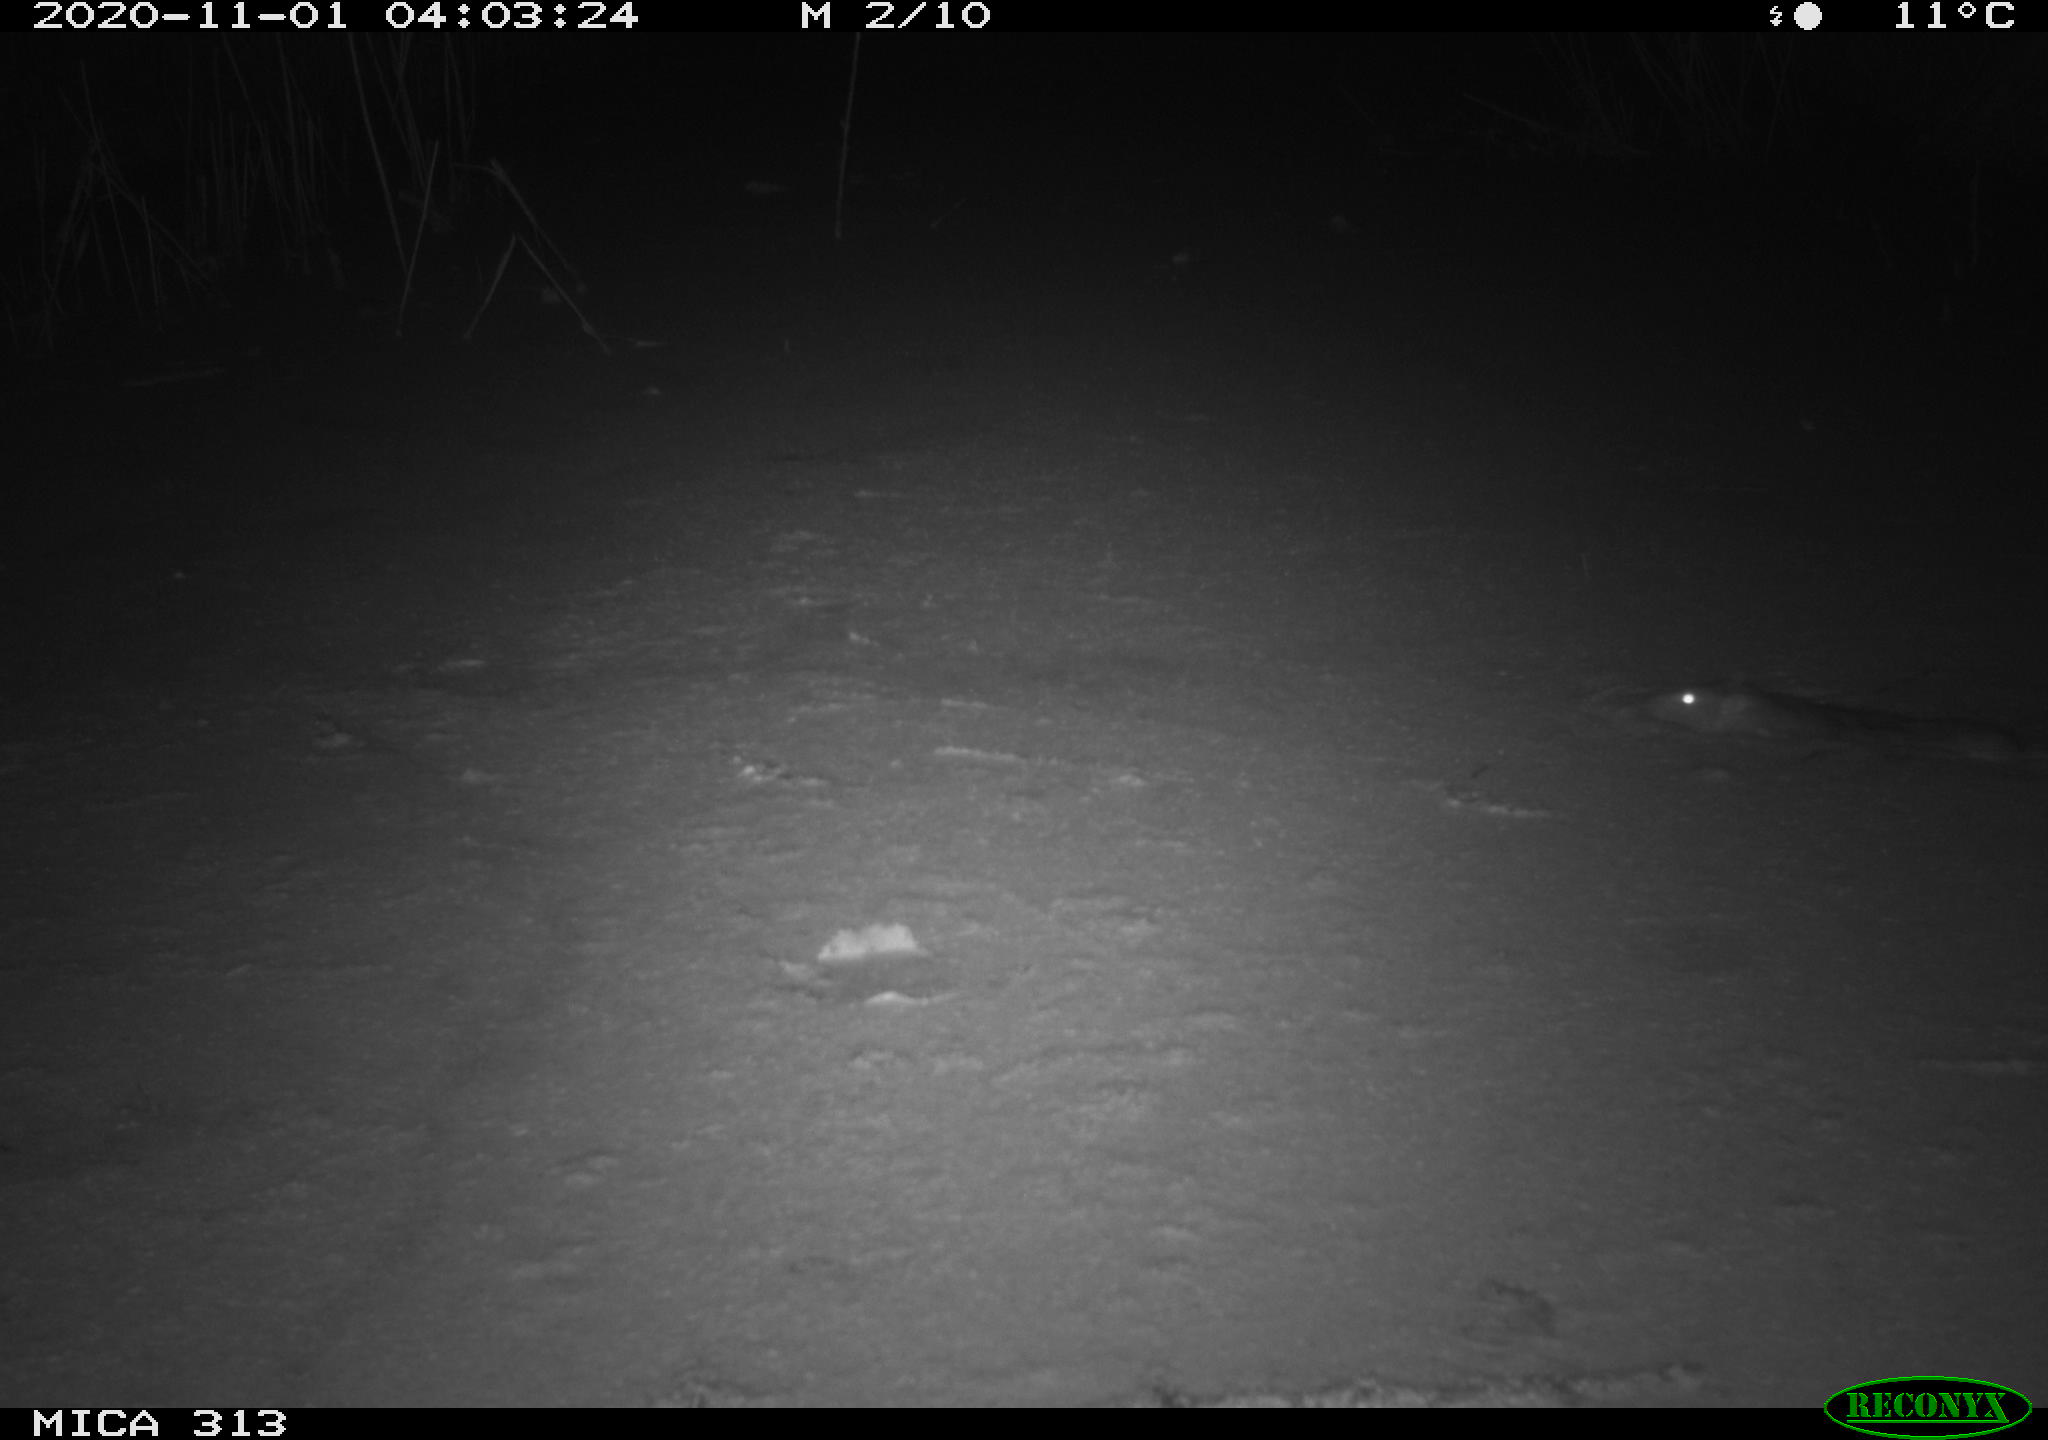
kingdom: Animalia
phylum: Chordata
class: Mammalia
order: Rodentia
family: Muridae
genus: Rattus
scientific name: Rattus norvegicus
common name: Brown rat
